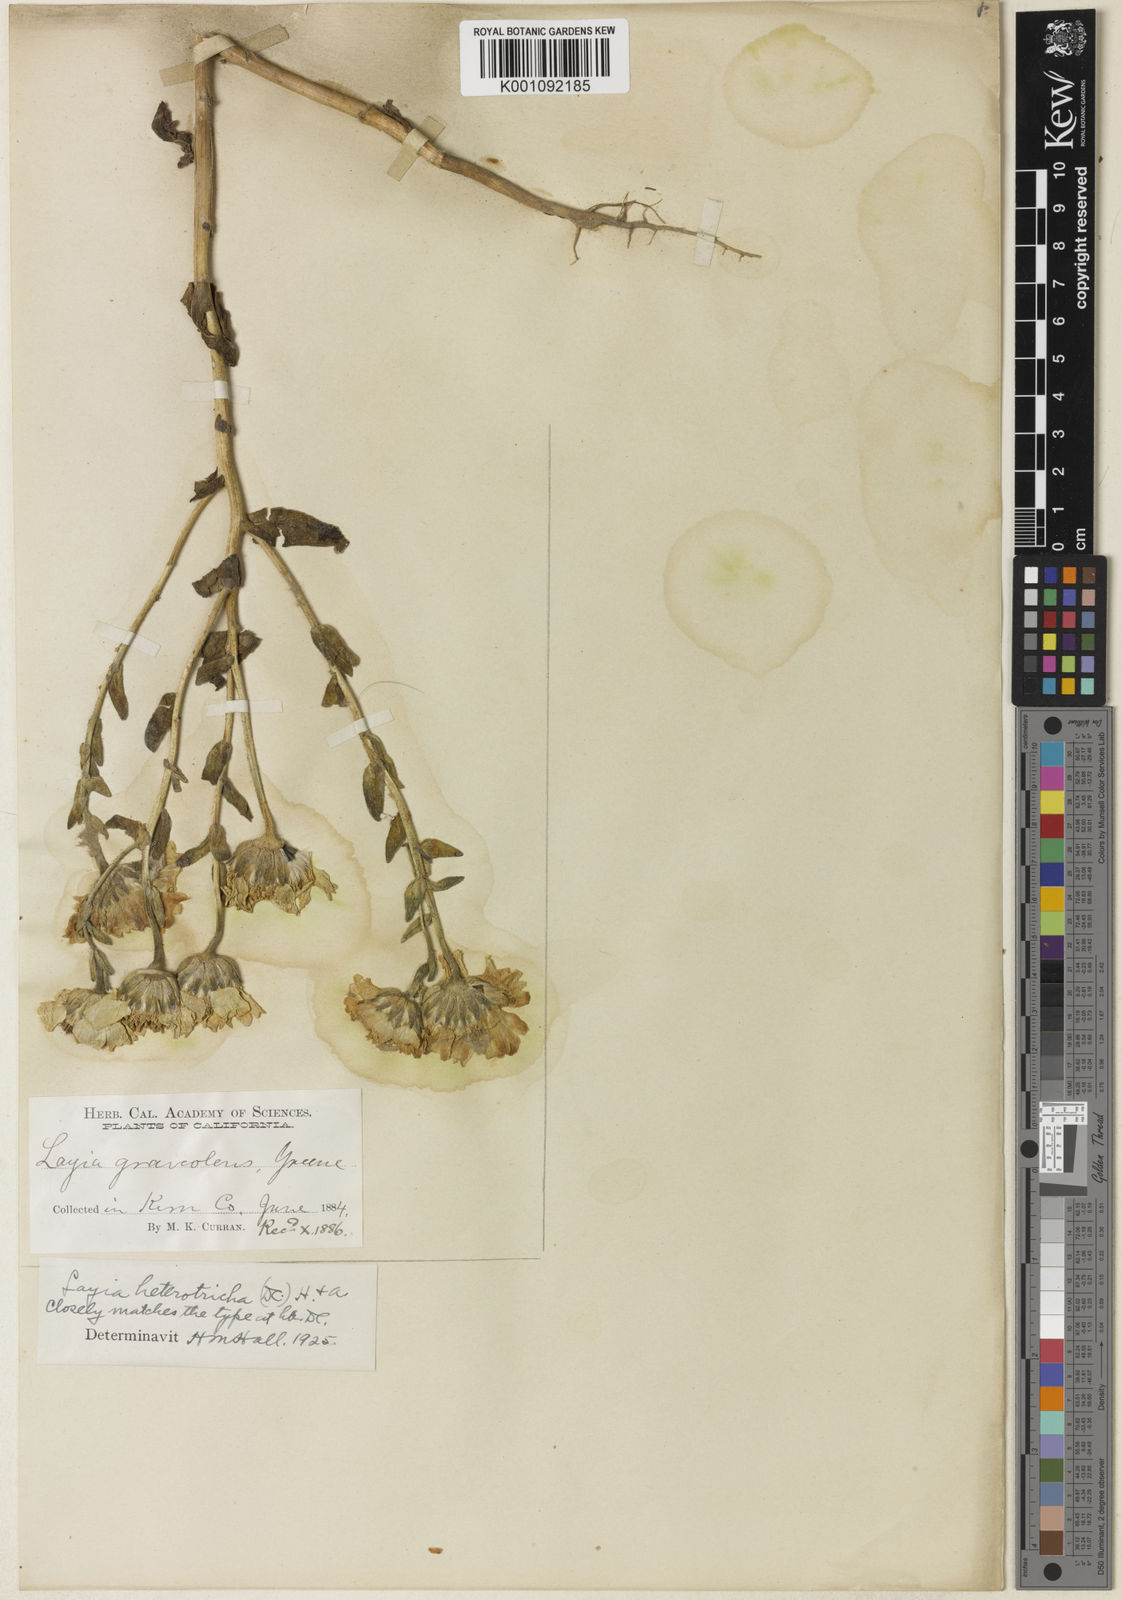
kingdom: Plantae
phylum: Tracheophyta
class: Magnoliopsida
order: Asterales
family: Asteraceae
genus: Layia
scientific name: Layia heterotricha
